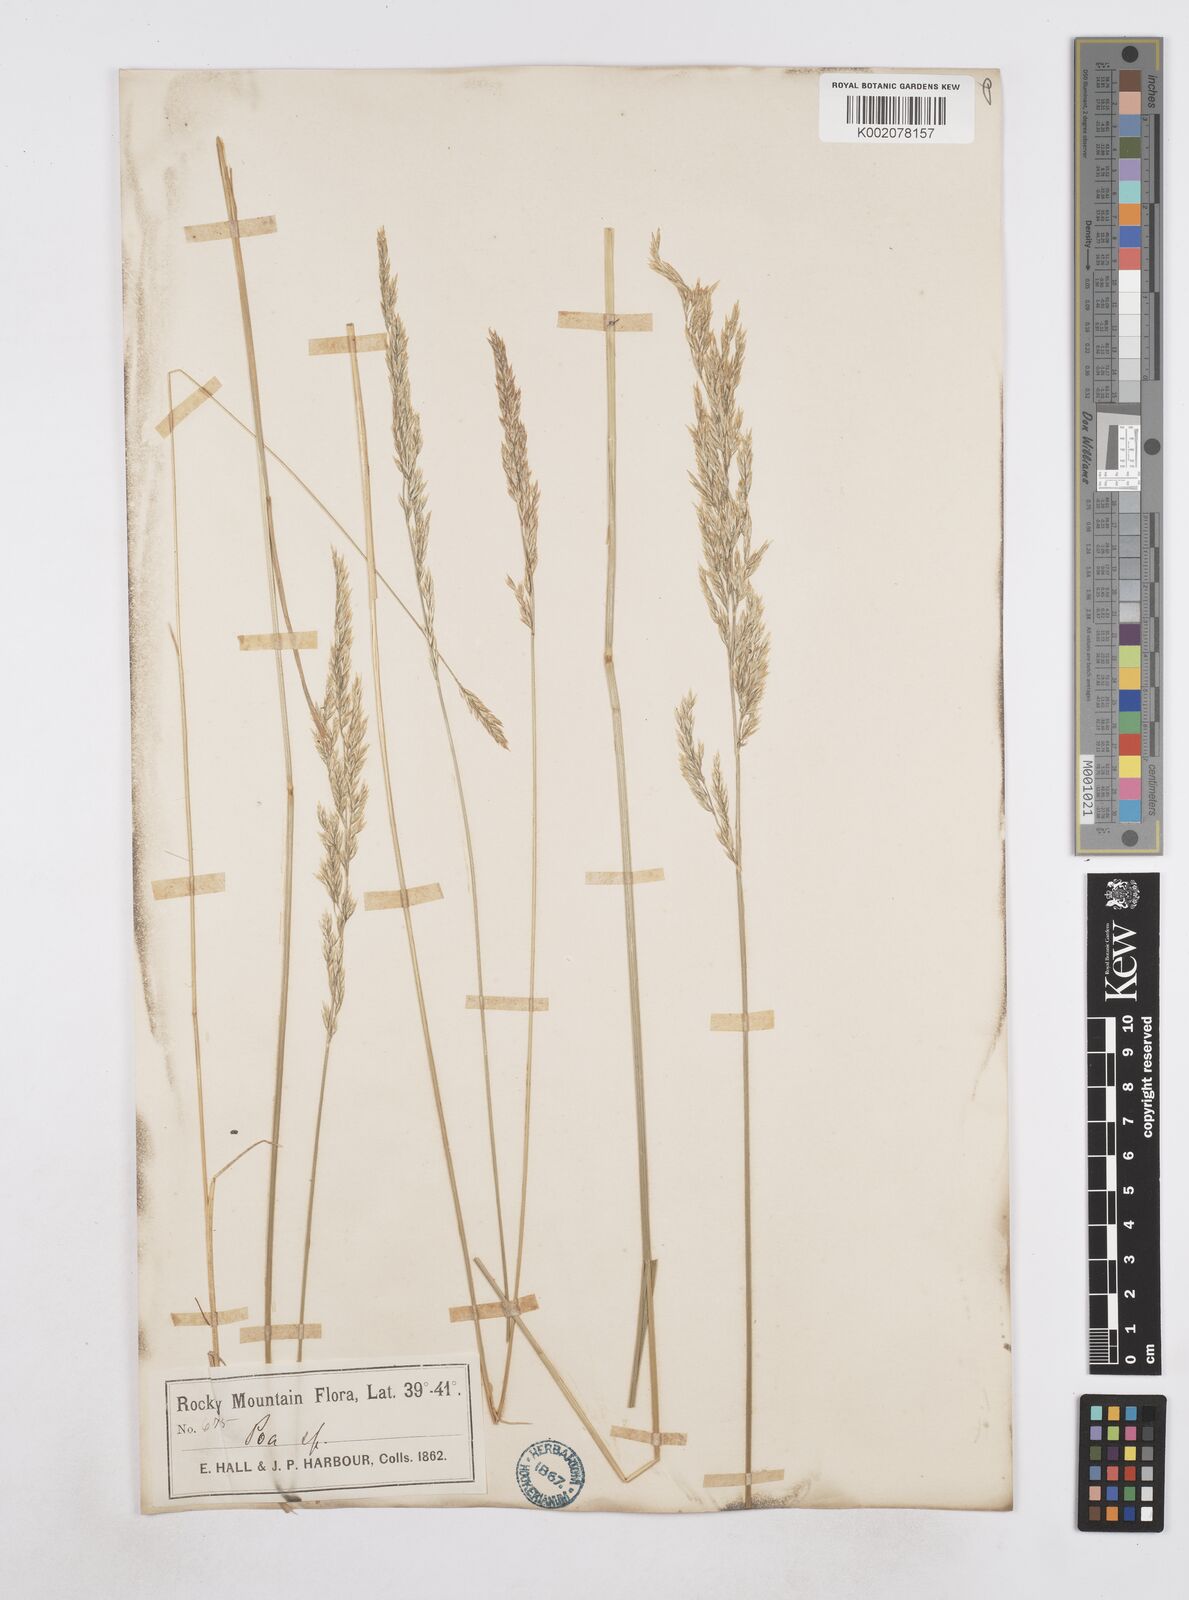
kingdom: Plantae
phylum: Tracheophyta
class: Liliopsida
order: Poales
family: Poaceae
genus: Poa
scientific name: Poa
